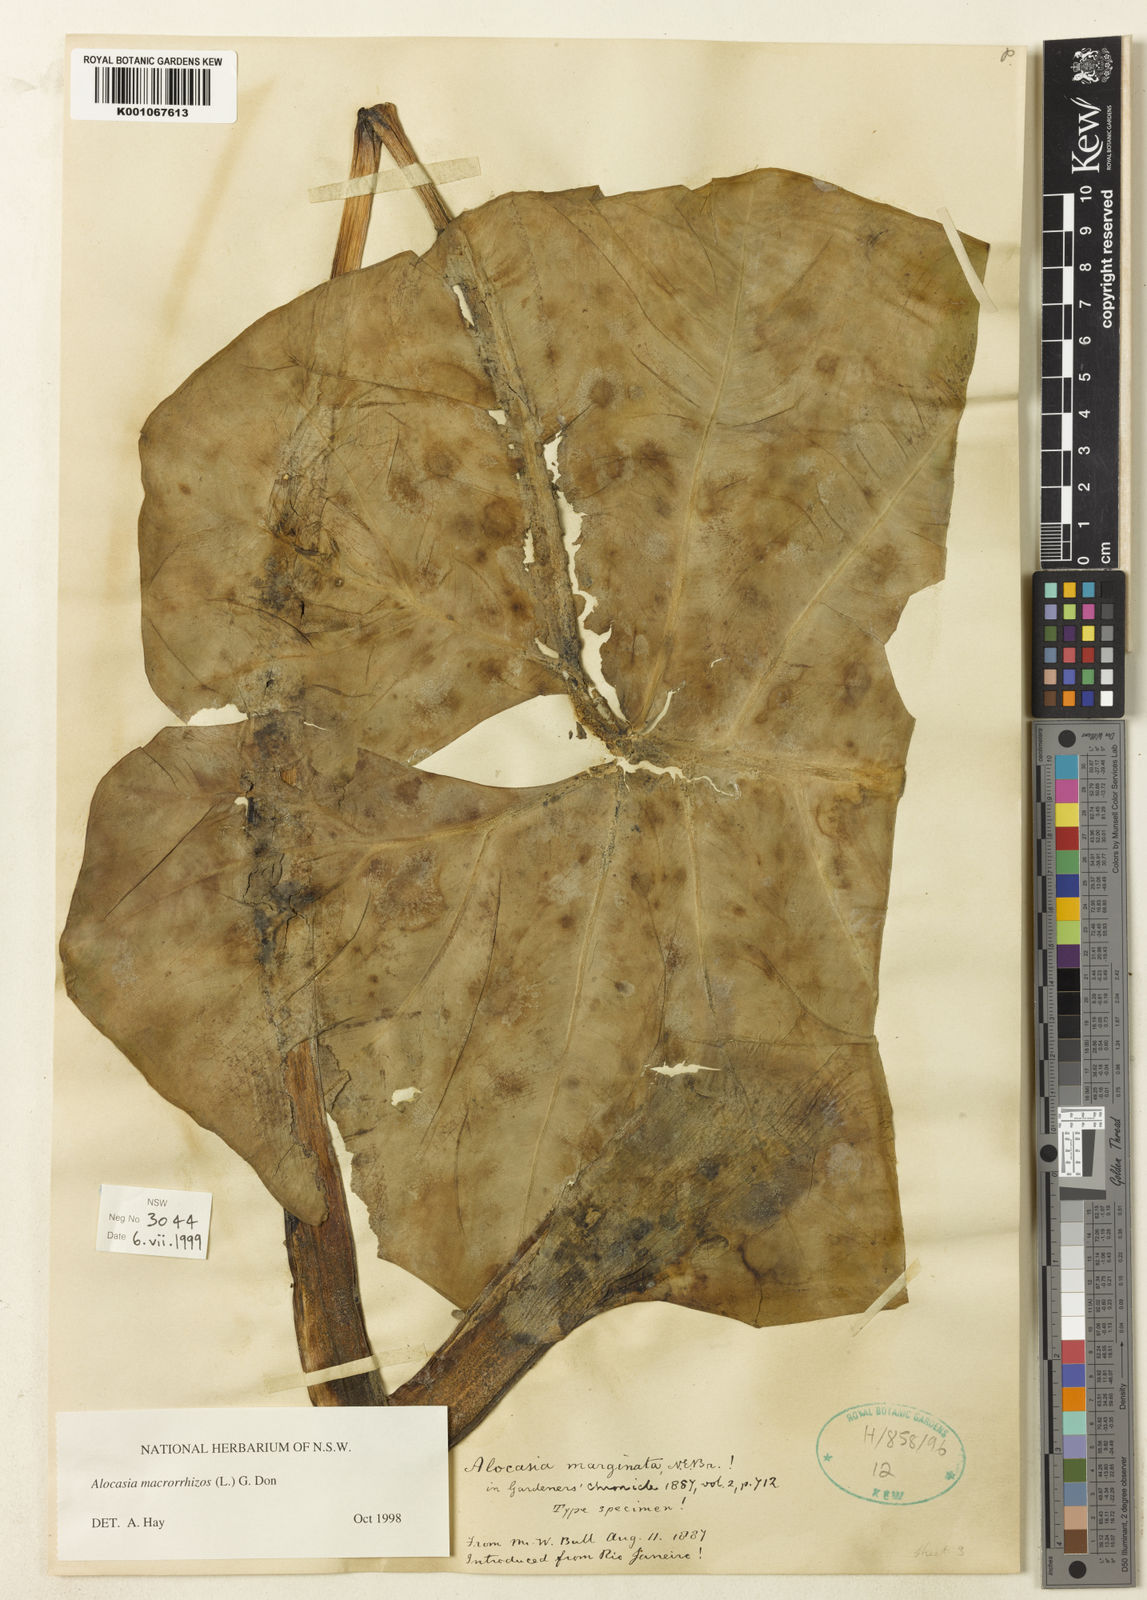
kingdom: Plantae
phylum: Tracheophyta
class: Liliopsida
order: Alismatales
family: Araceae
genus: Alocasia
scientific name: Alocasia macrorrhizos
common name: Giant taro
